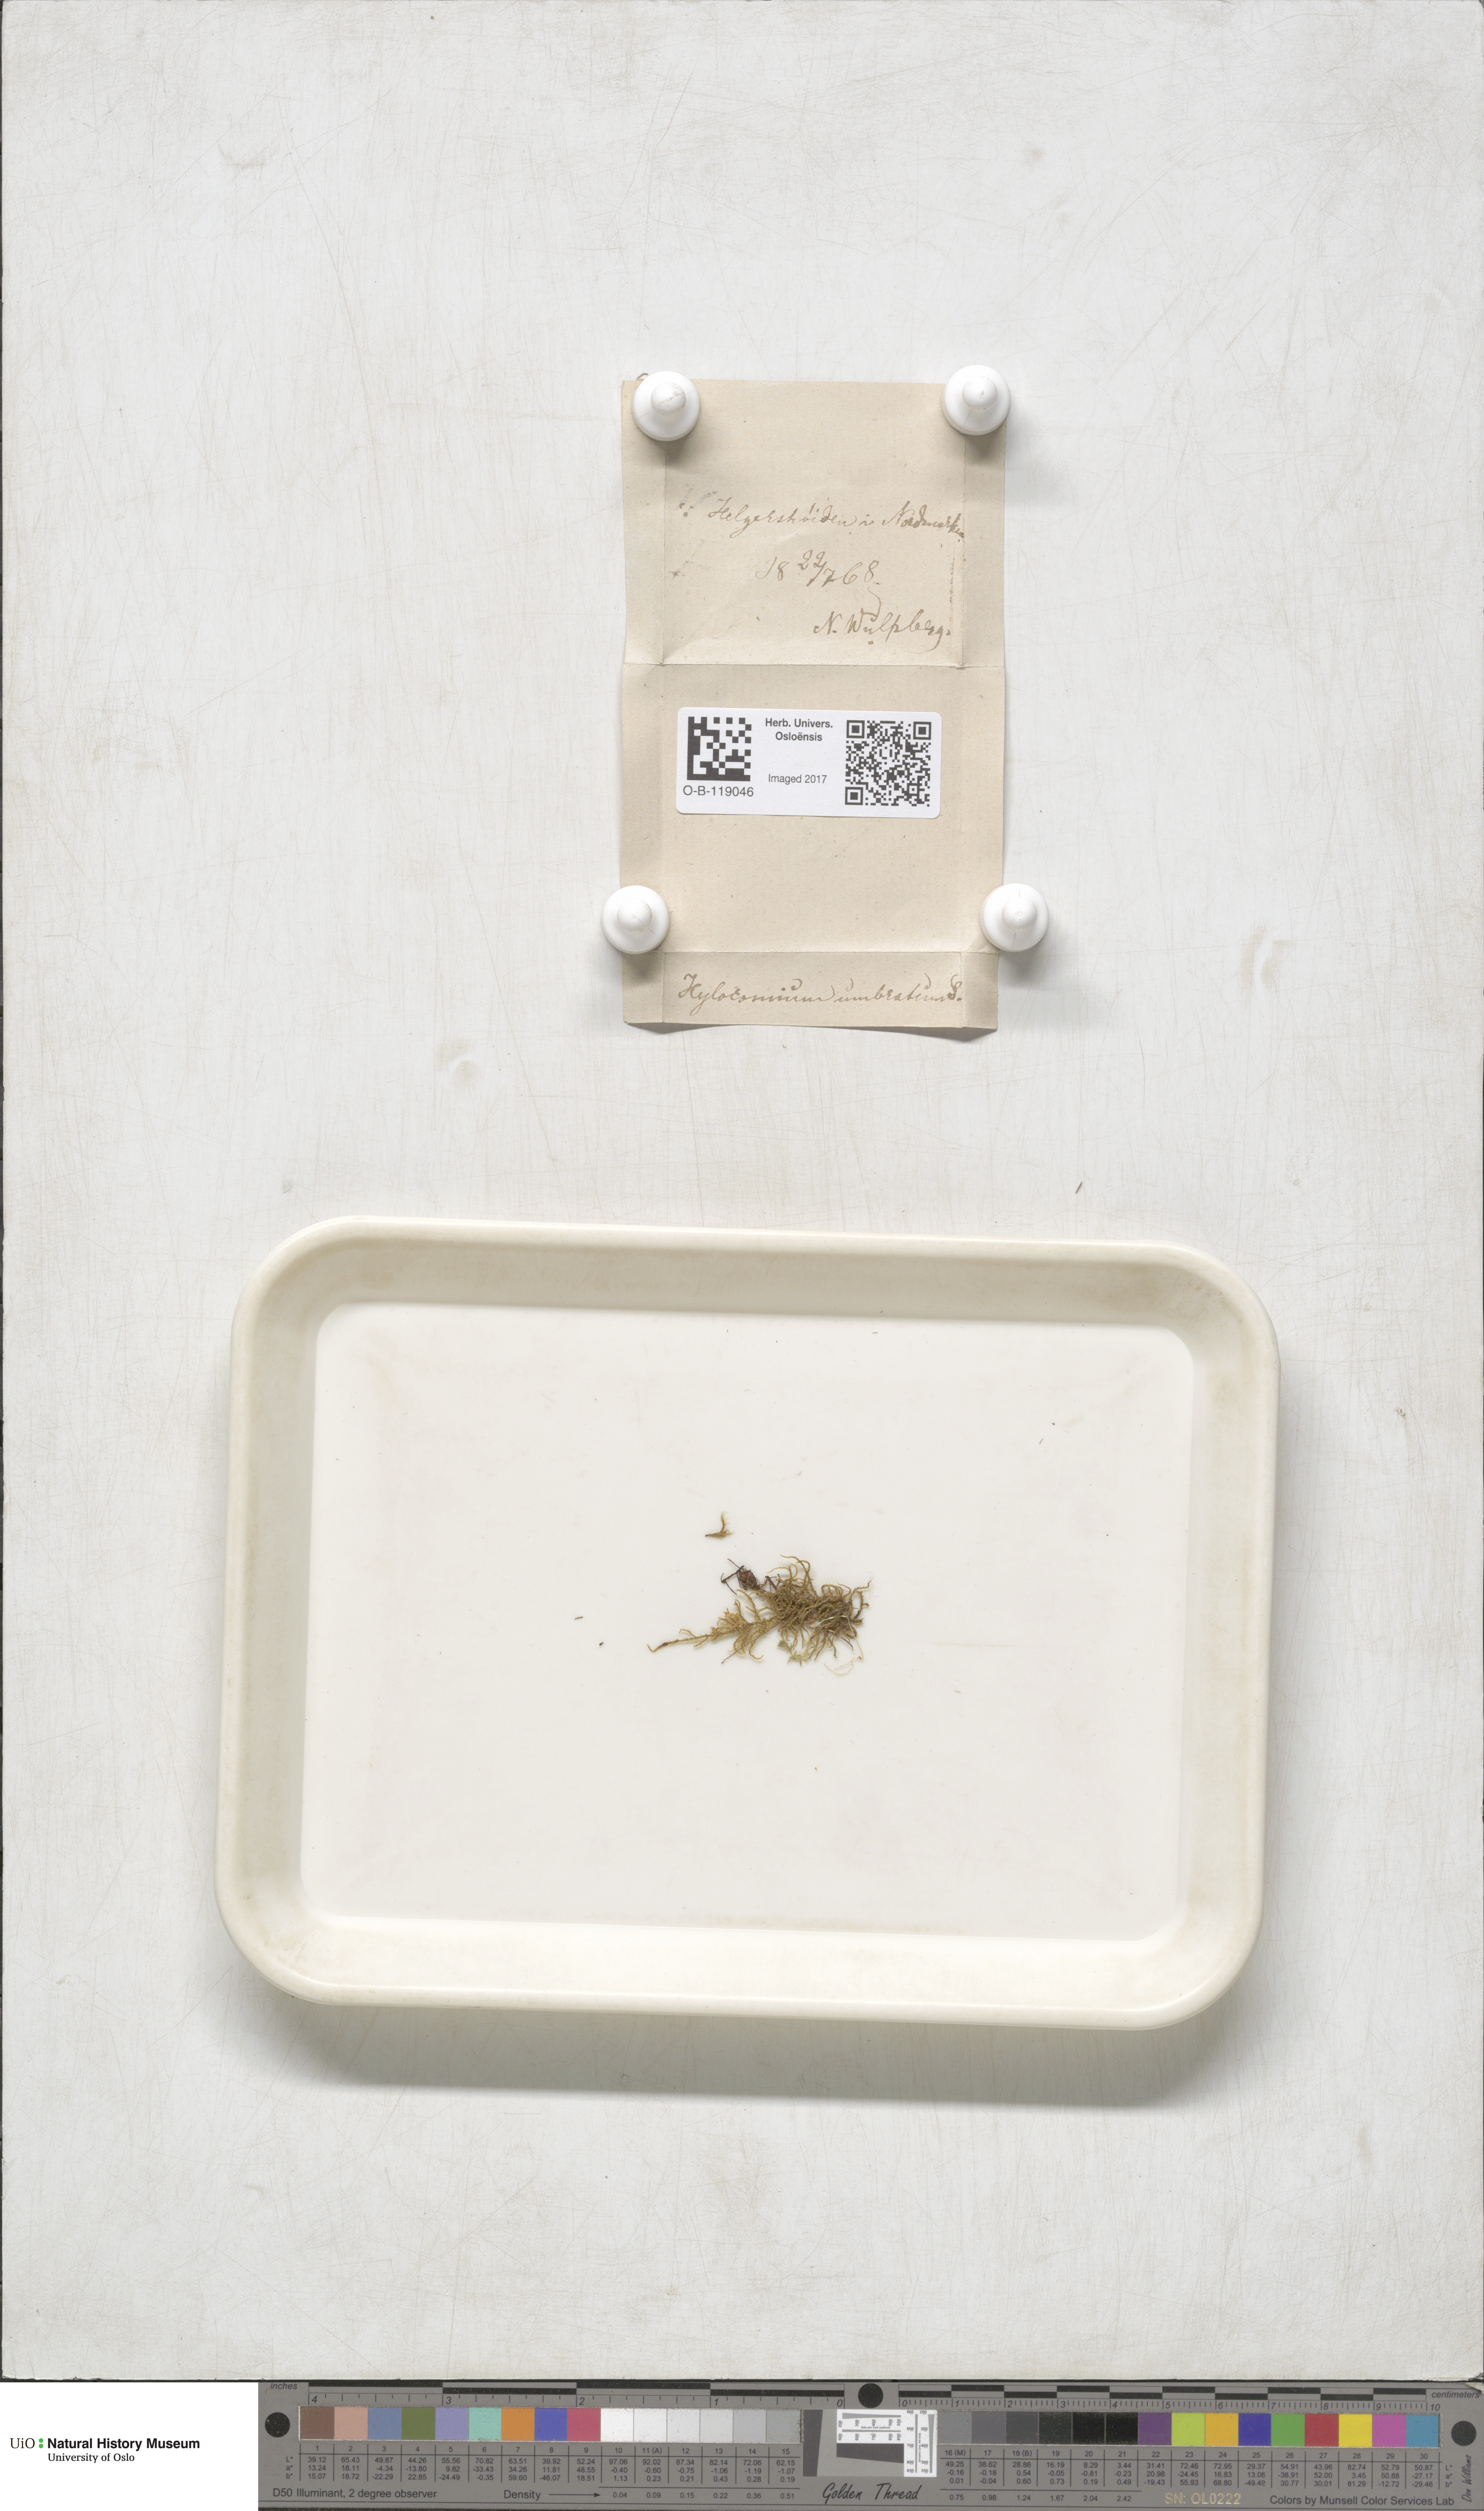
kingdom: Plantae
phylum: Bryophyta
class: Bryopsida
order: Hypnales
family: Hylocomiaceae
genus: Hylocomiastrum
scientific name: Hylocomiastrum umbratum
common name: Shaded woods moss
